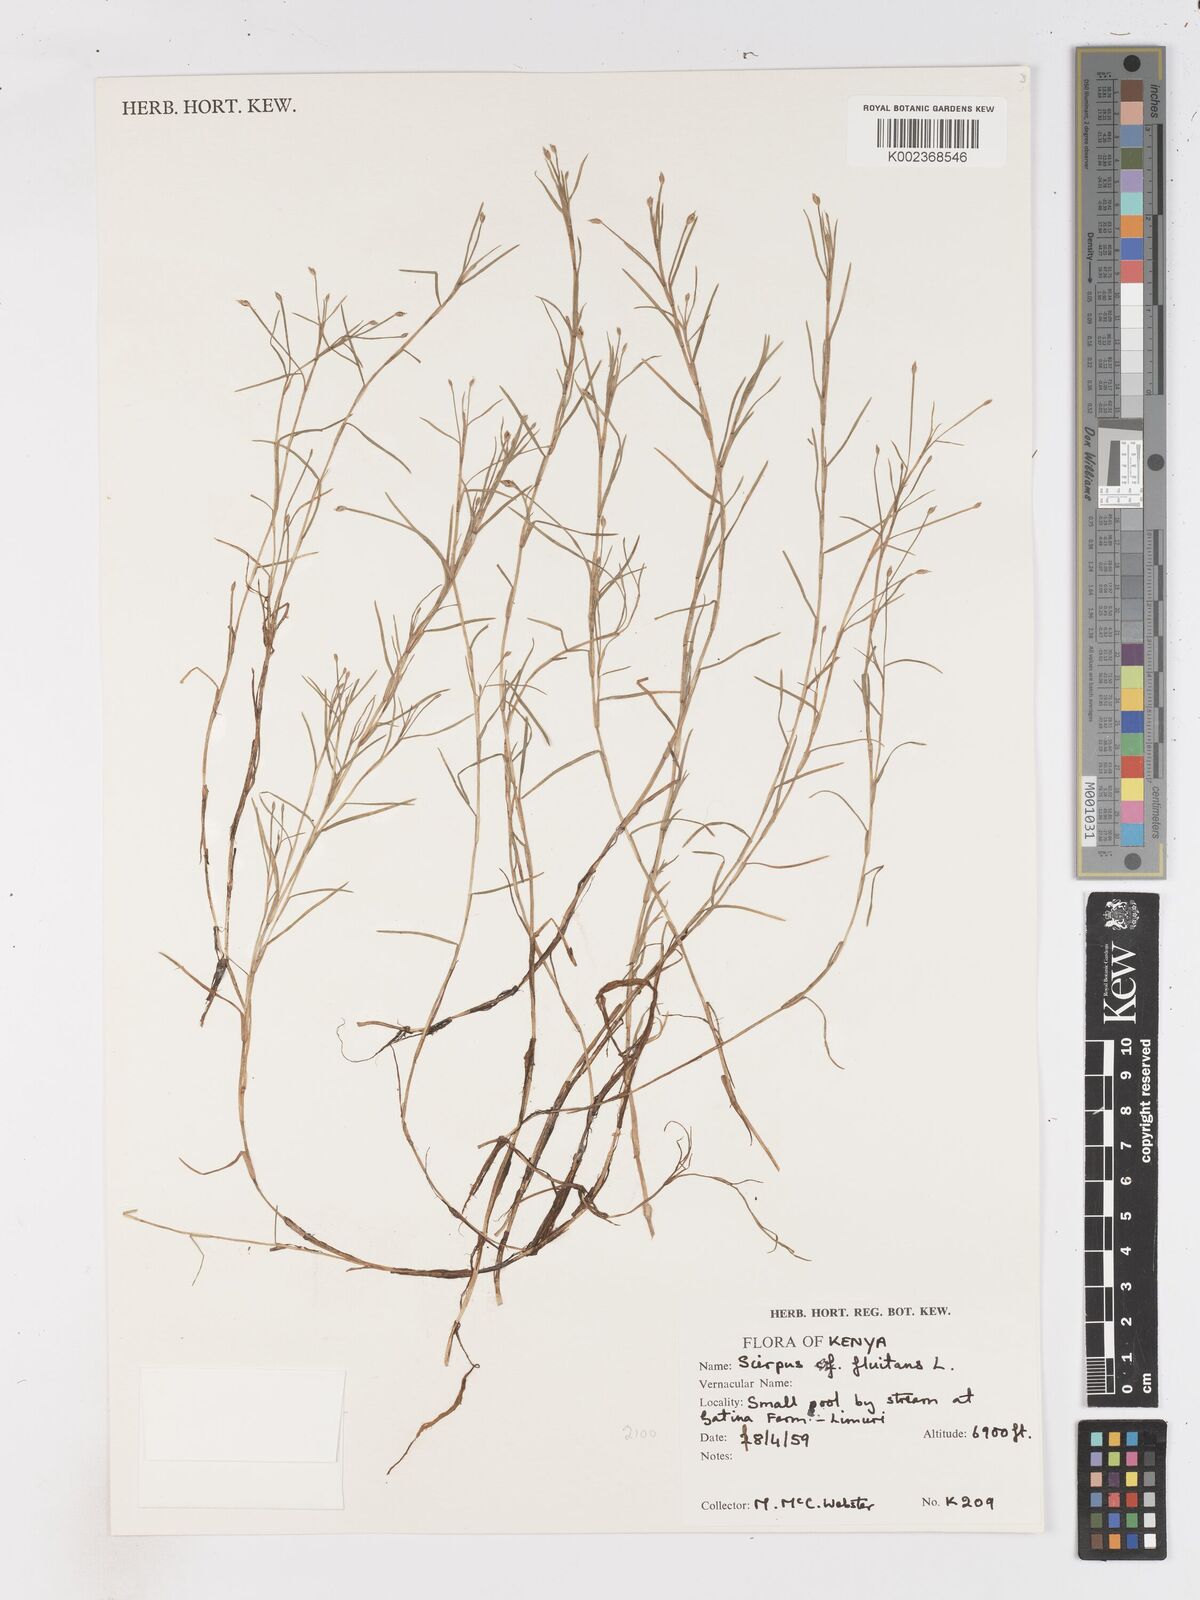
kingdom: Plantae
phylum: Tracheophyta
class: Liliopsida
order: Poales
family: Cyperaceae
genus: Isolepis
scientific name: Isolepis fluitans
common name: Floating club-rush
